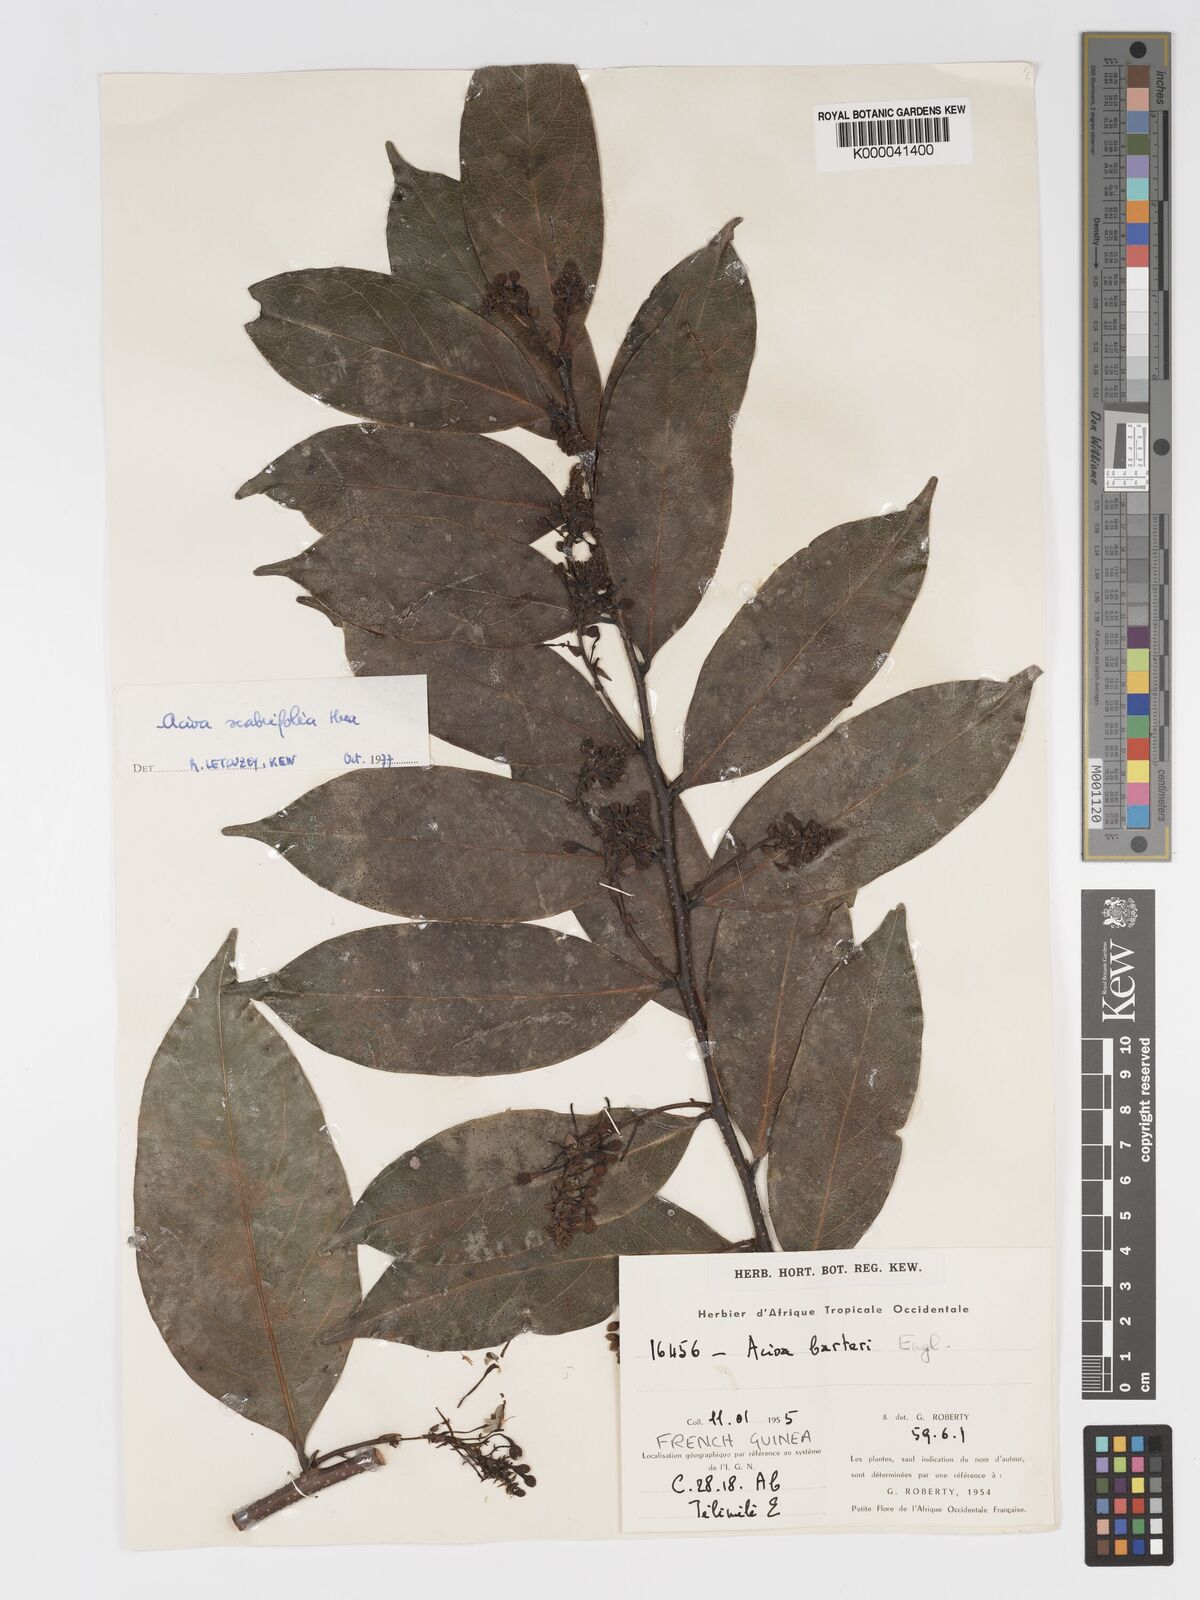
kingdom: Plantae
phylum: Tracheophyta
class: Magnoliopsida
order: Malpighiales
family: Chrysobalanaceae
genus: Dactyladenia
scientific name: Dactyladenia scabrifolia
